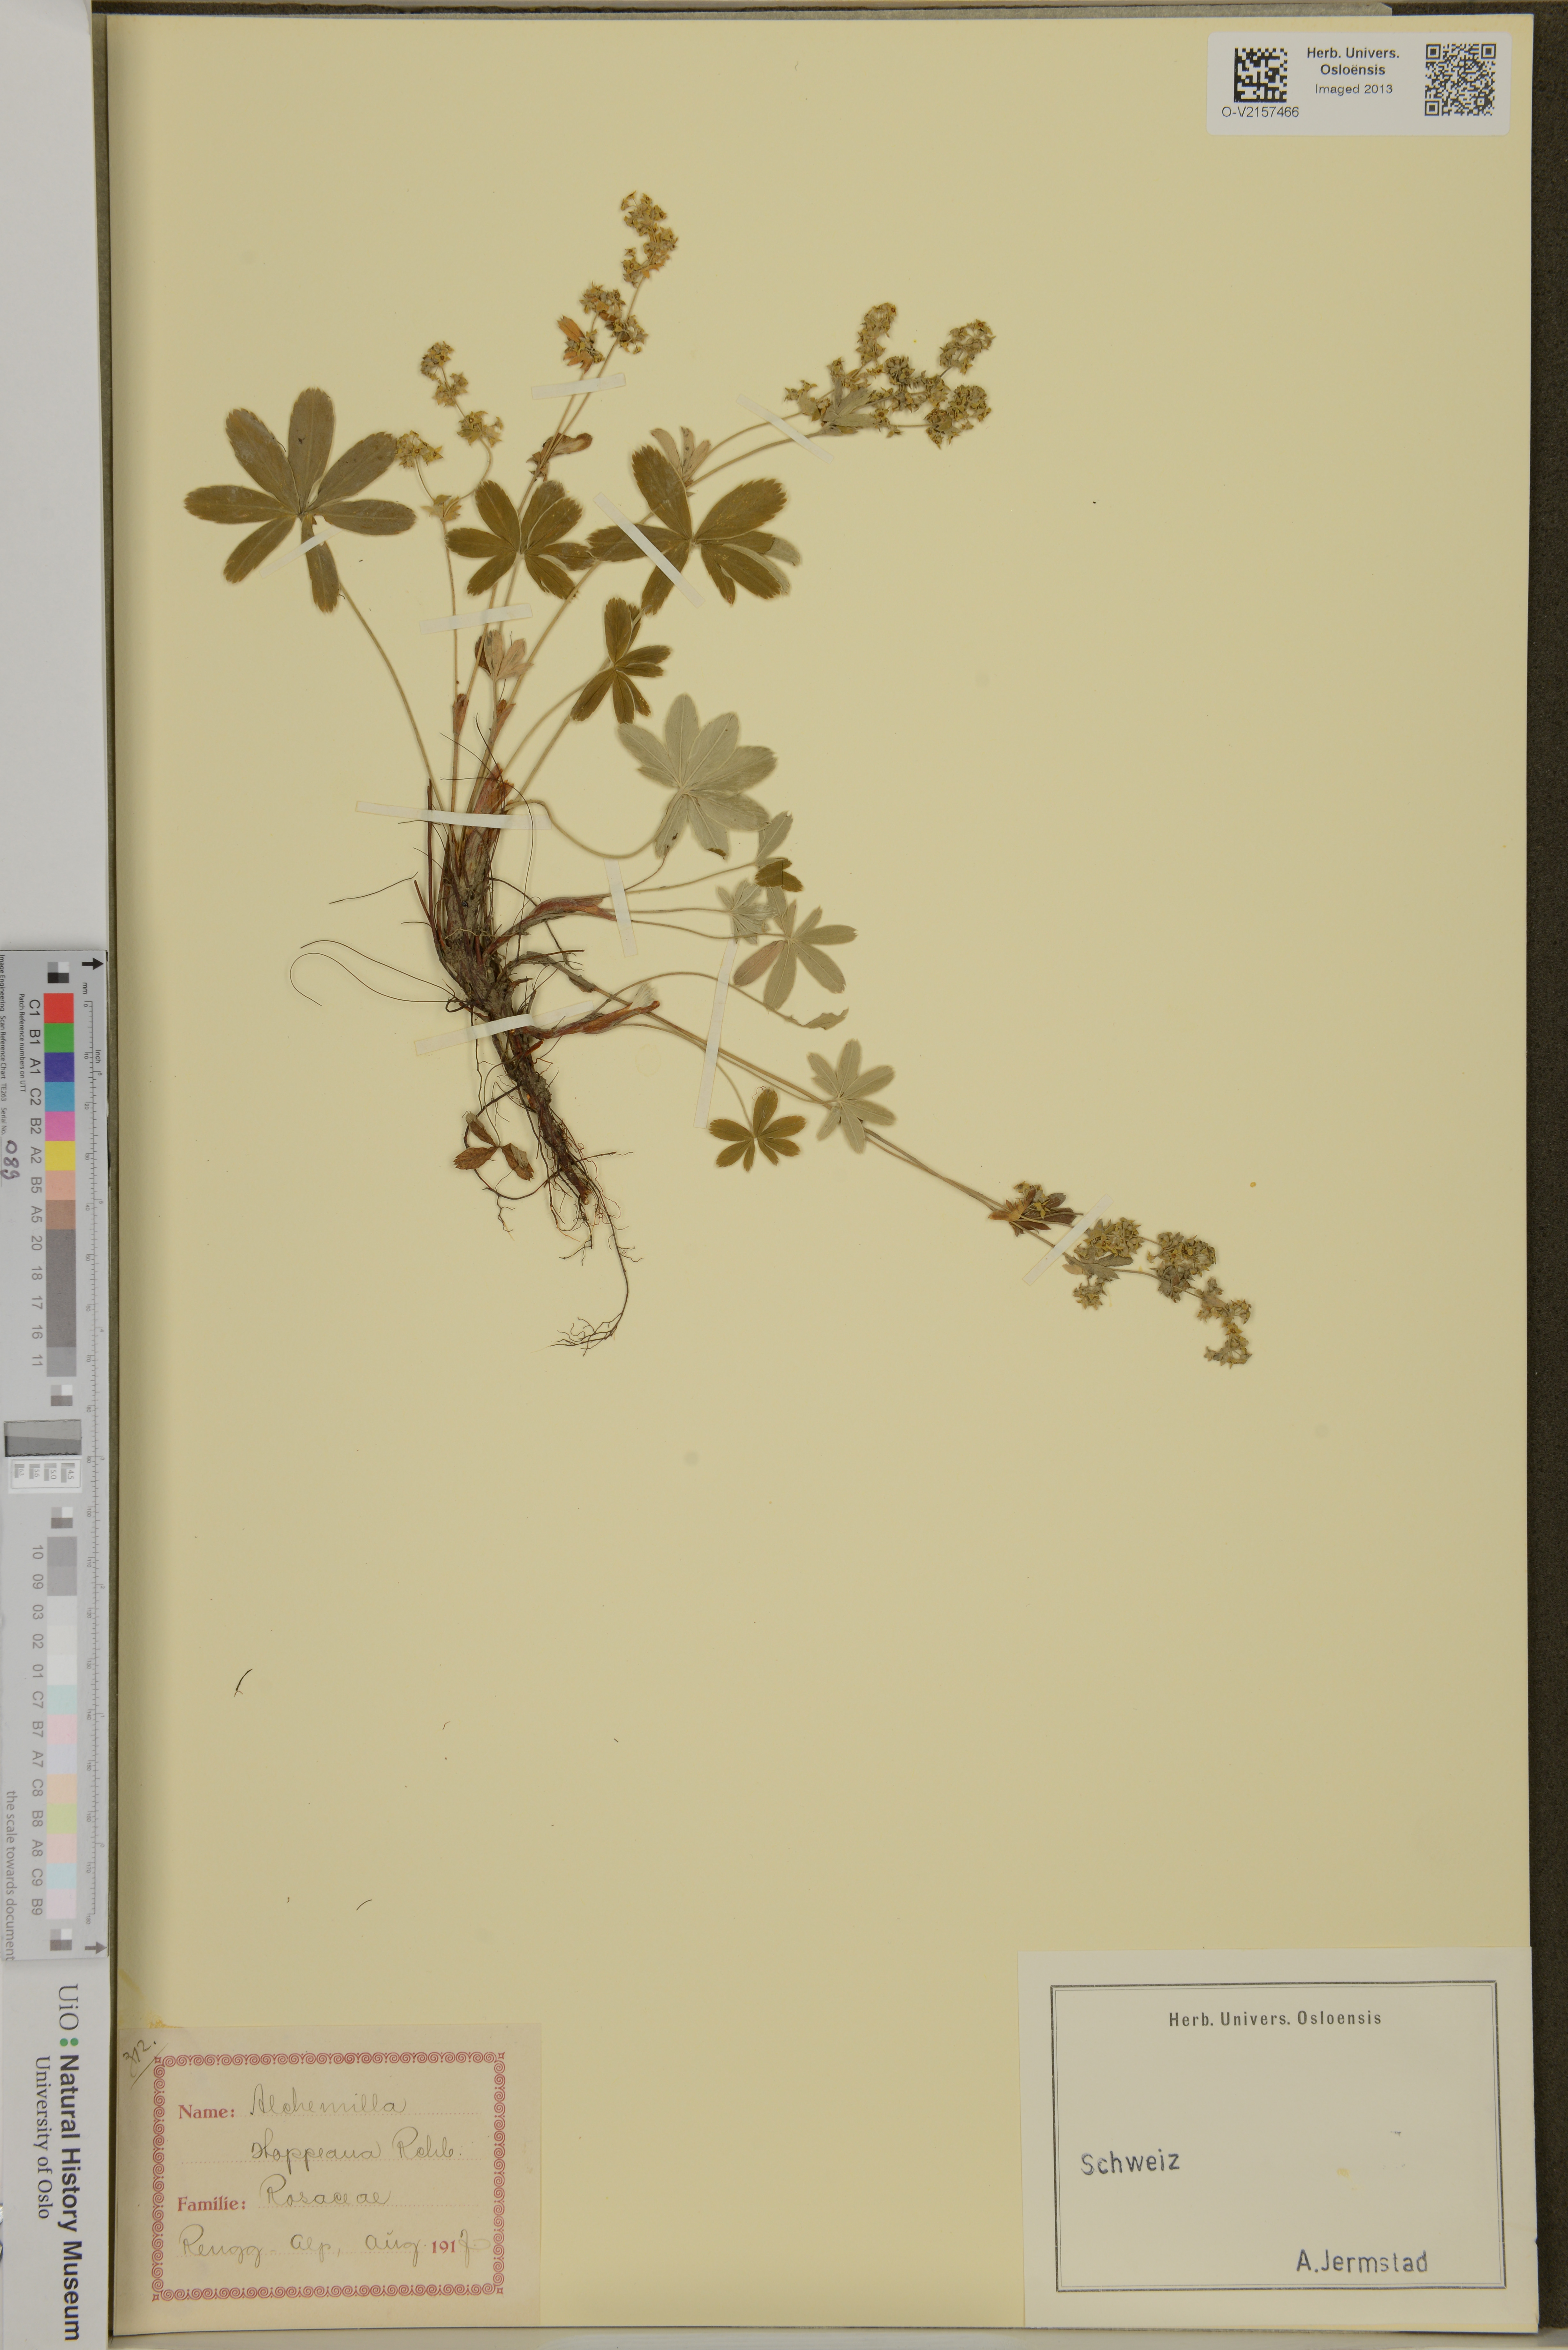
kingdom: Plantae
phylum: Tracheophyta
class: Magnoliopsida
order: Rosales
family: Rosaceae
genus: Alchemilla
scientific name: Alchemilla hoppeana
